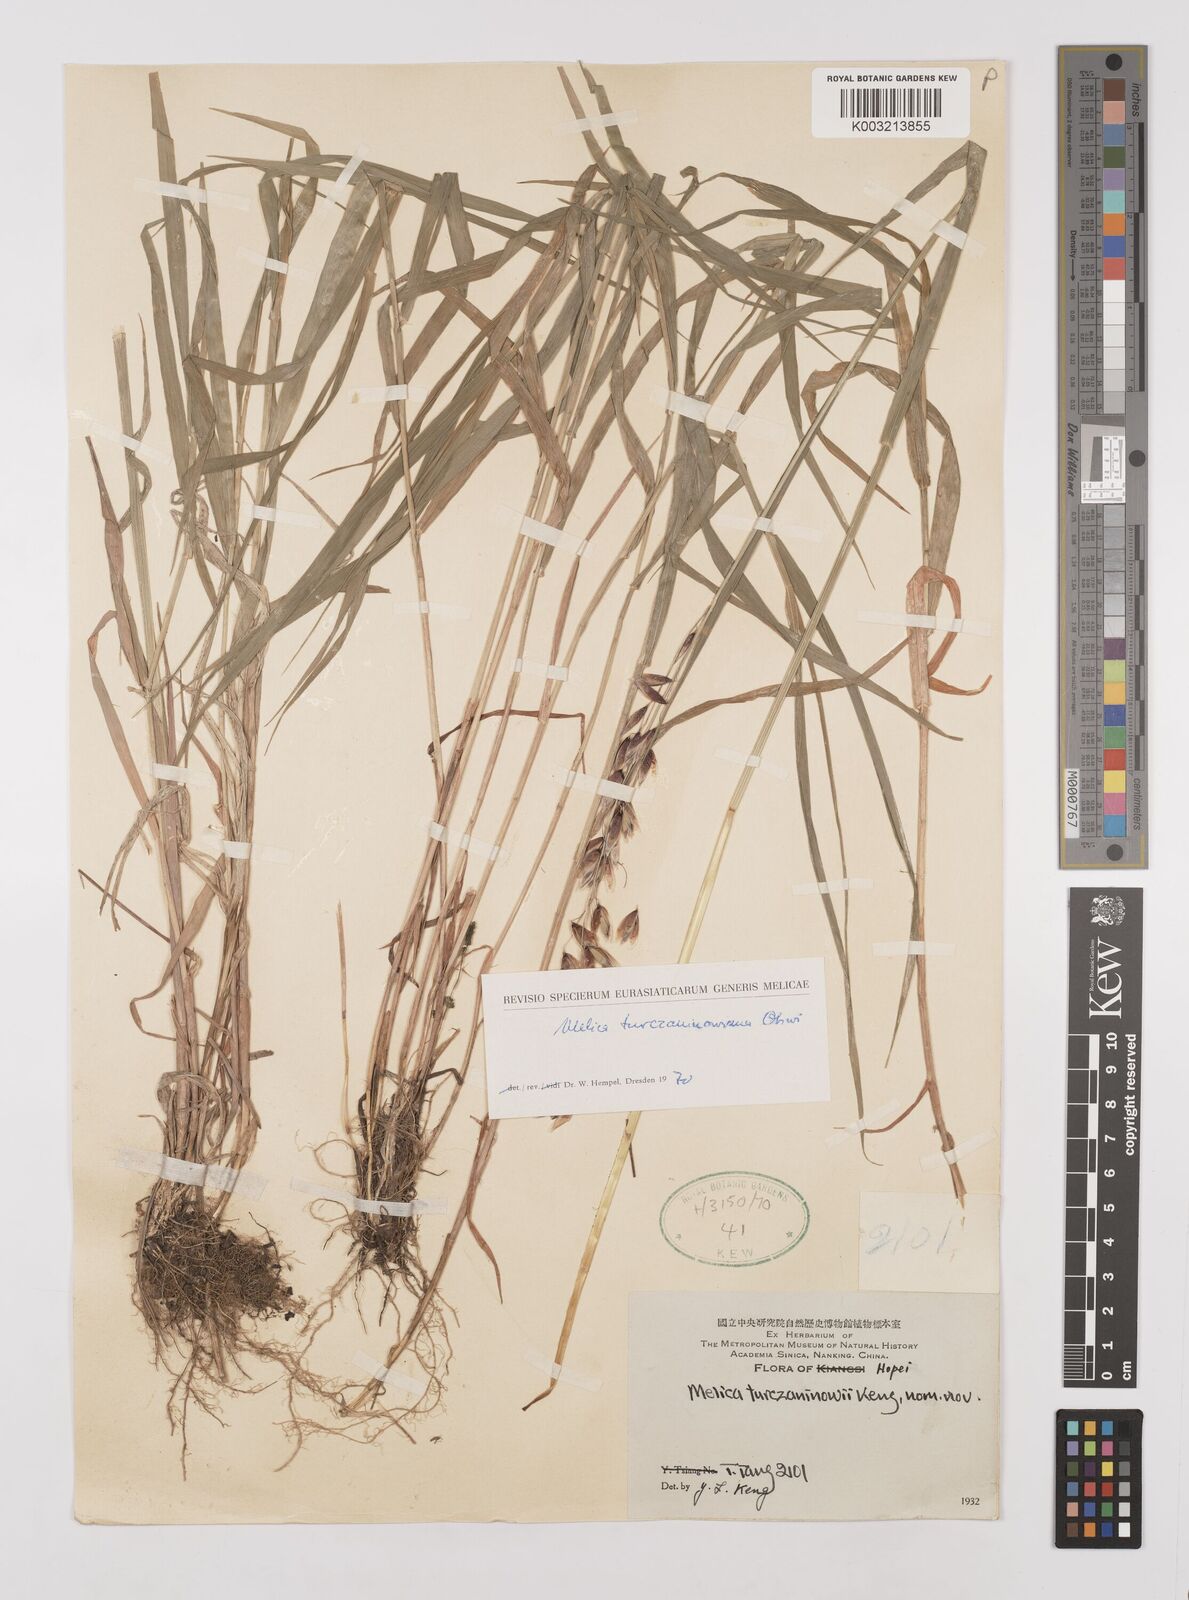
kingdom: Plantae
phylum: Tracheophyta
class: Liliopsida
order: Poales
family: Poaceae
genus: Melica
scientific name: Melica turczaninowiana
